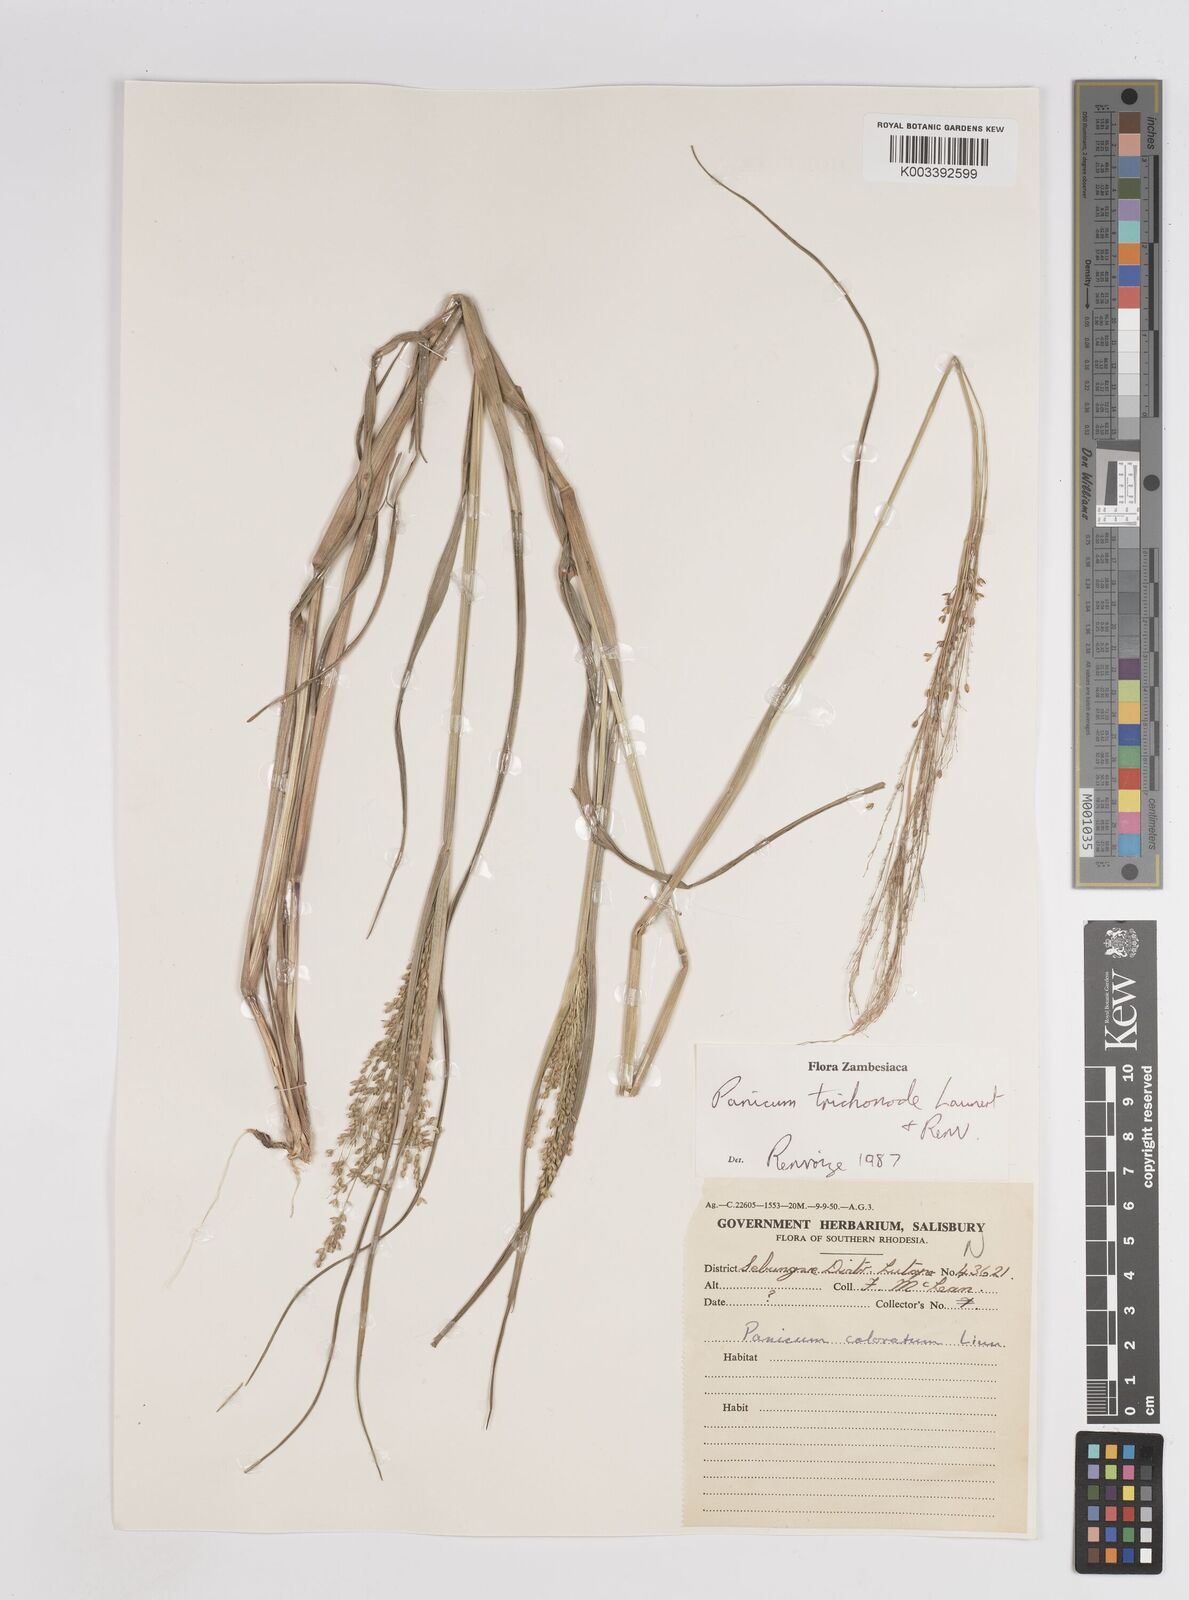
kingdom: Plantae
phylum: Tracheophyta
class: Liliopsida
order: Poales
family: Poaceae
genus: Panicum
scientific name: Panicum trichonode
